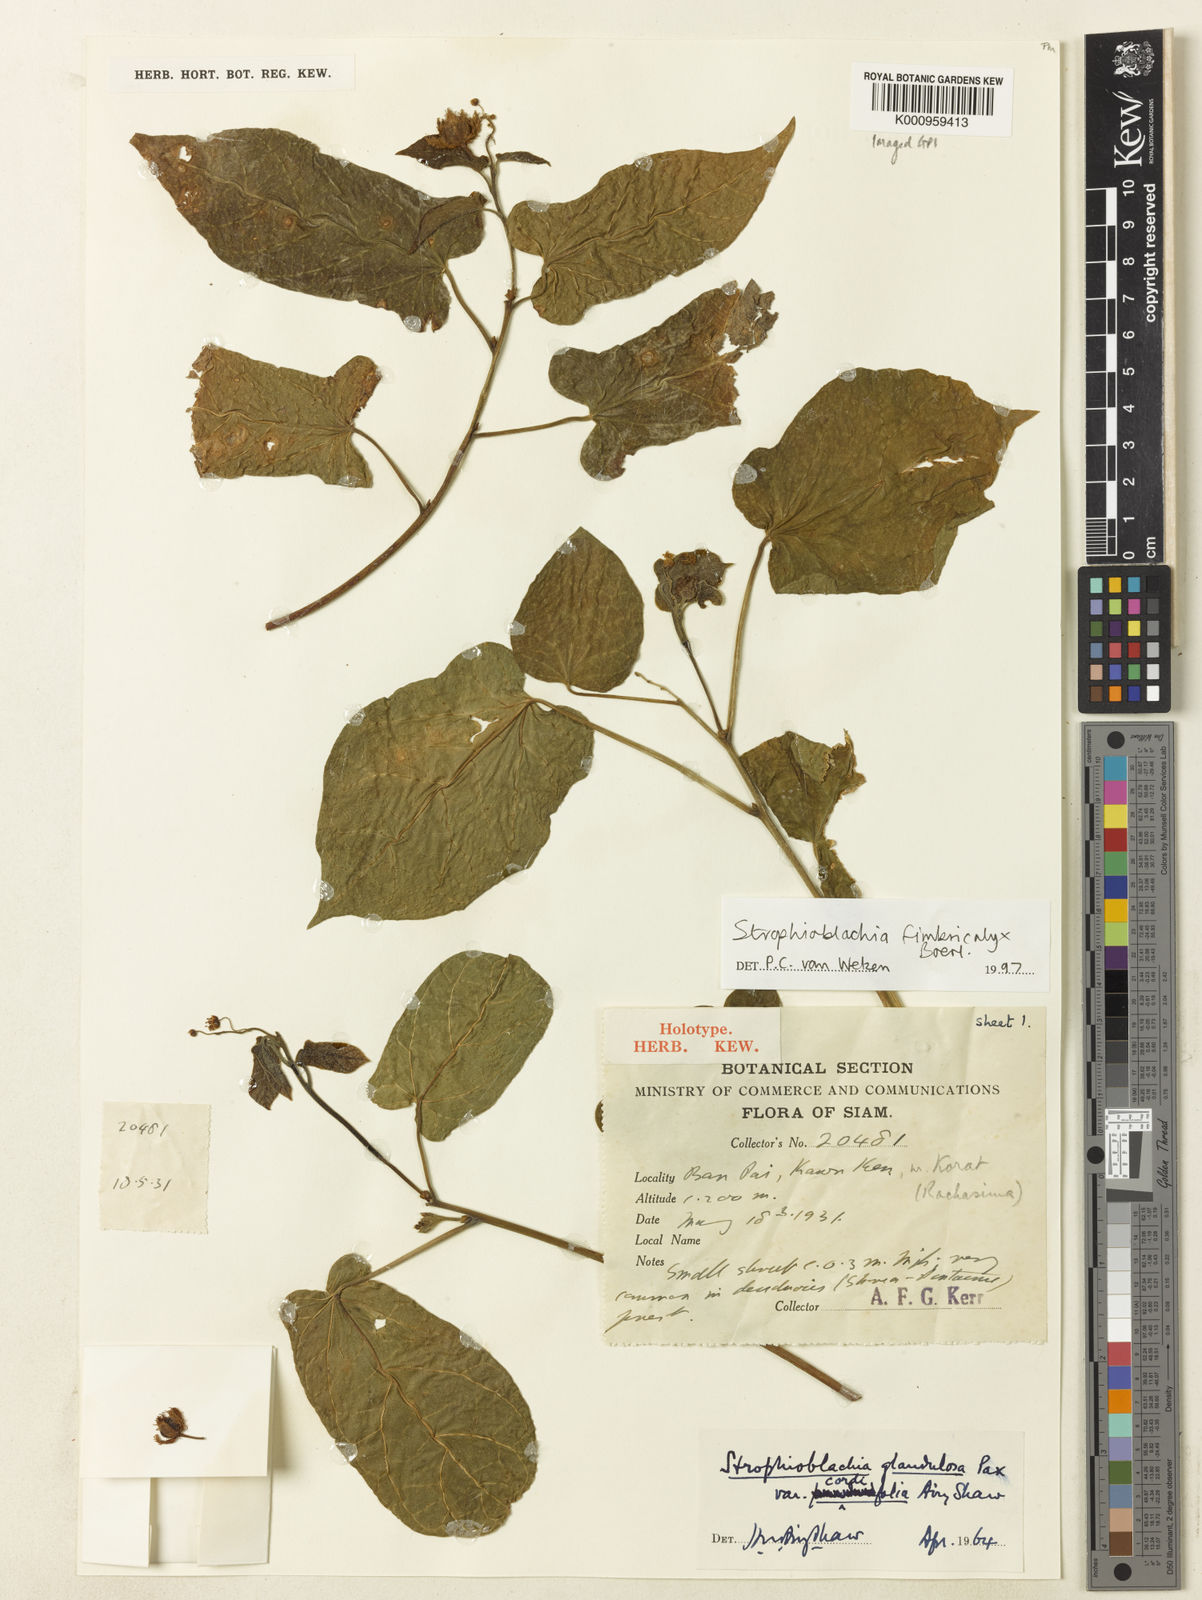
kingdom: Plantae
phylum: Tracheophyta
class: Magnoliopsida
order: Malpighiales
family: Euphorbiaceae
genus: Strophioblachia
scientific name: Strophioblachia fimbricalyx
